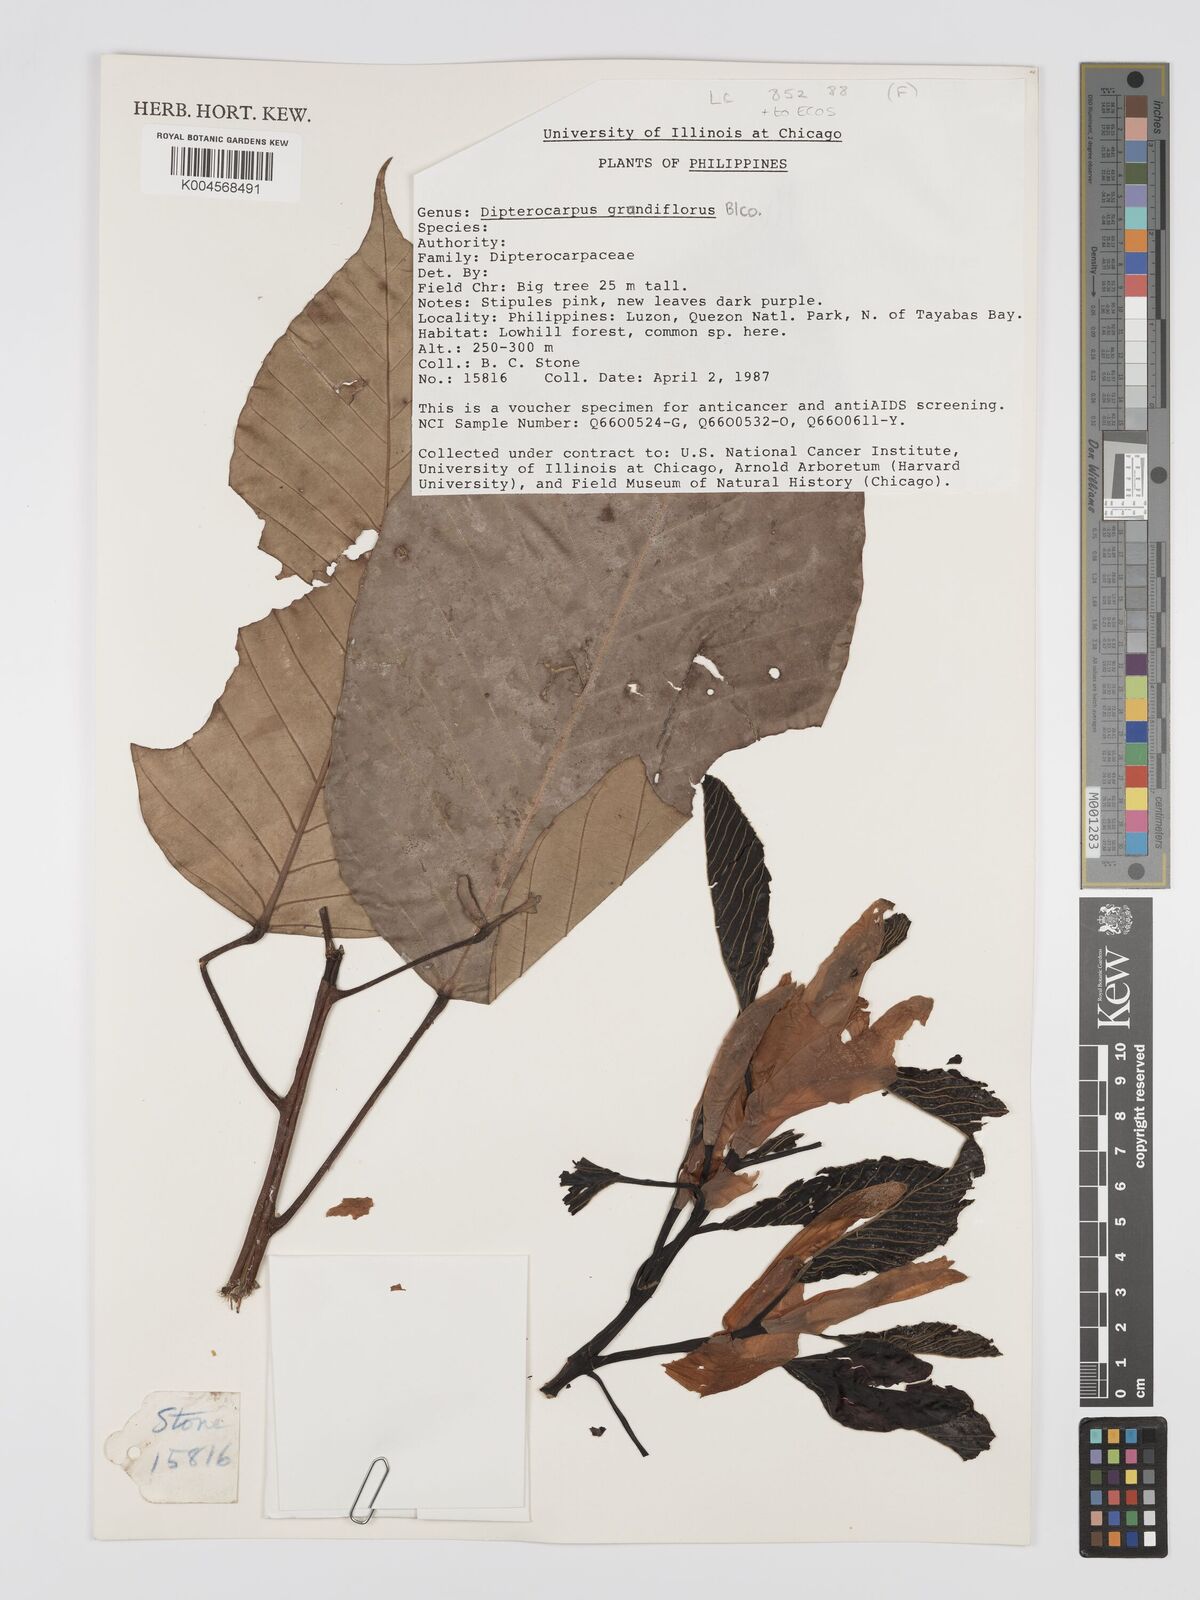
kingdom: Plantae
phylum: Tracheophyta
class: Magnoliopsida
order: Malvales
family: Dipterocarpaceae
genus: Dipterocarpus
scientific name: Dipterocarpus grandiflorus
